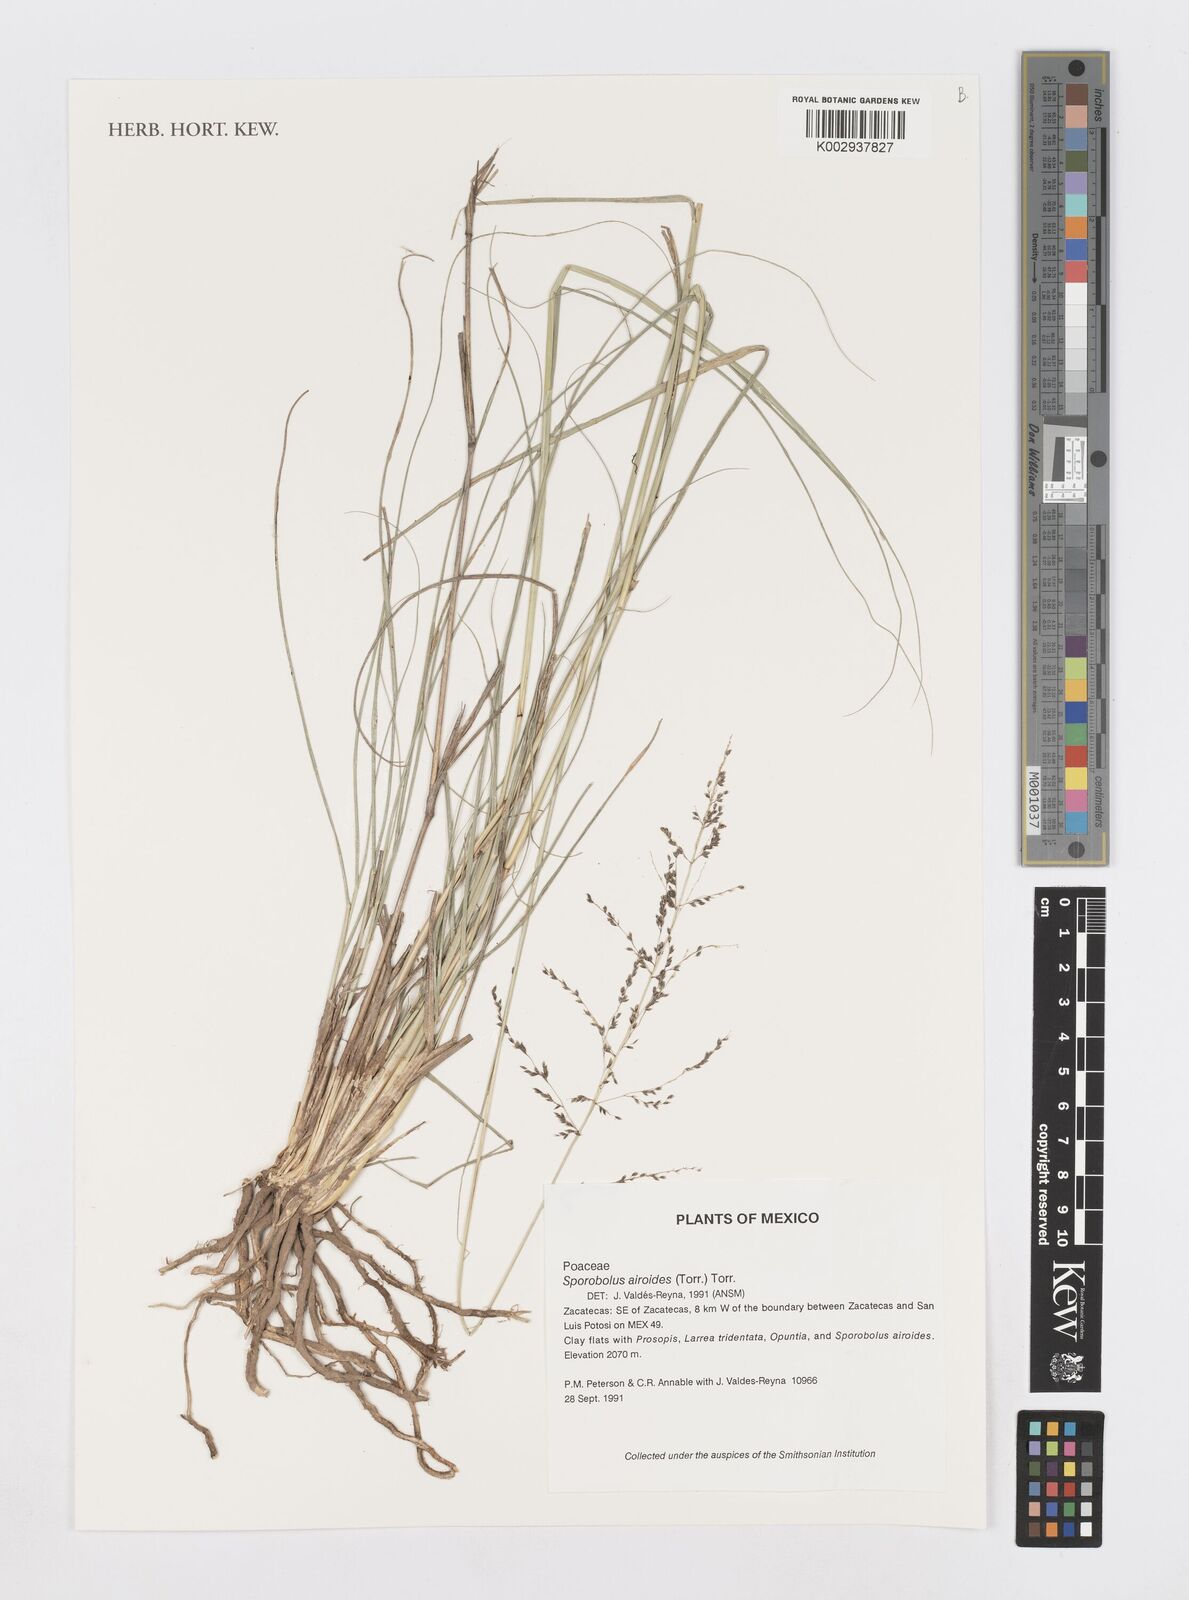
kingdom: Plantae
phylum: Tracheophyta
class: Liliopsida
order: Poales
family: Poaceae
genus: Sporobolus
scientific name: Sporobolus airoides
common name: Alkali sacaton
